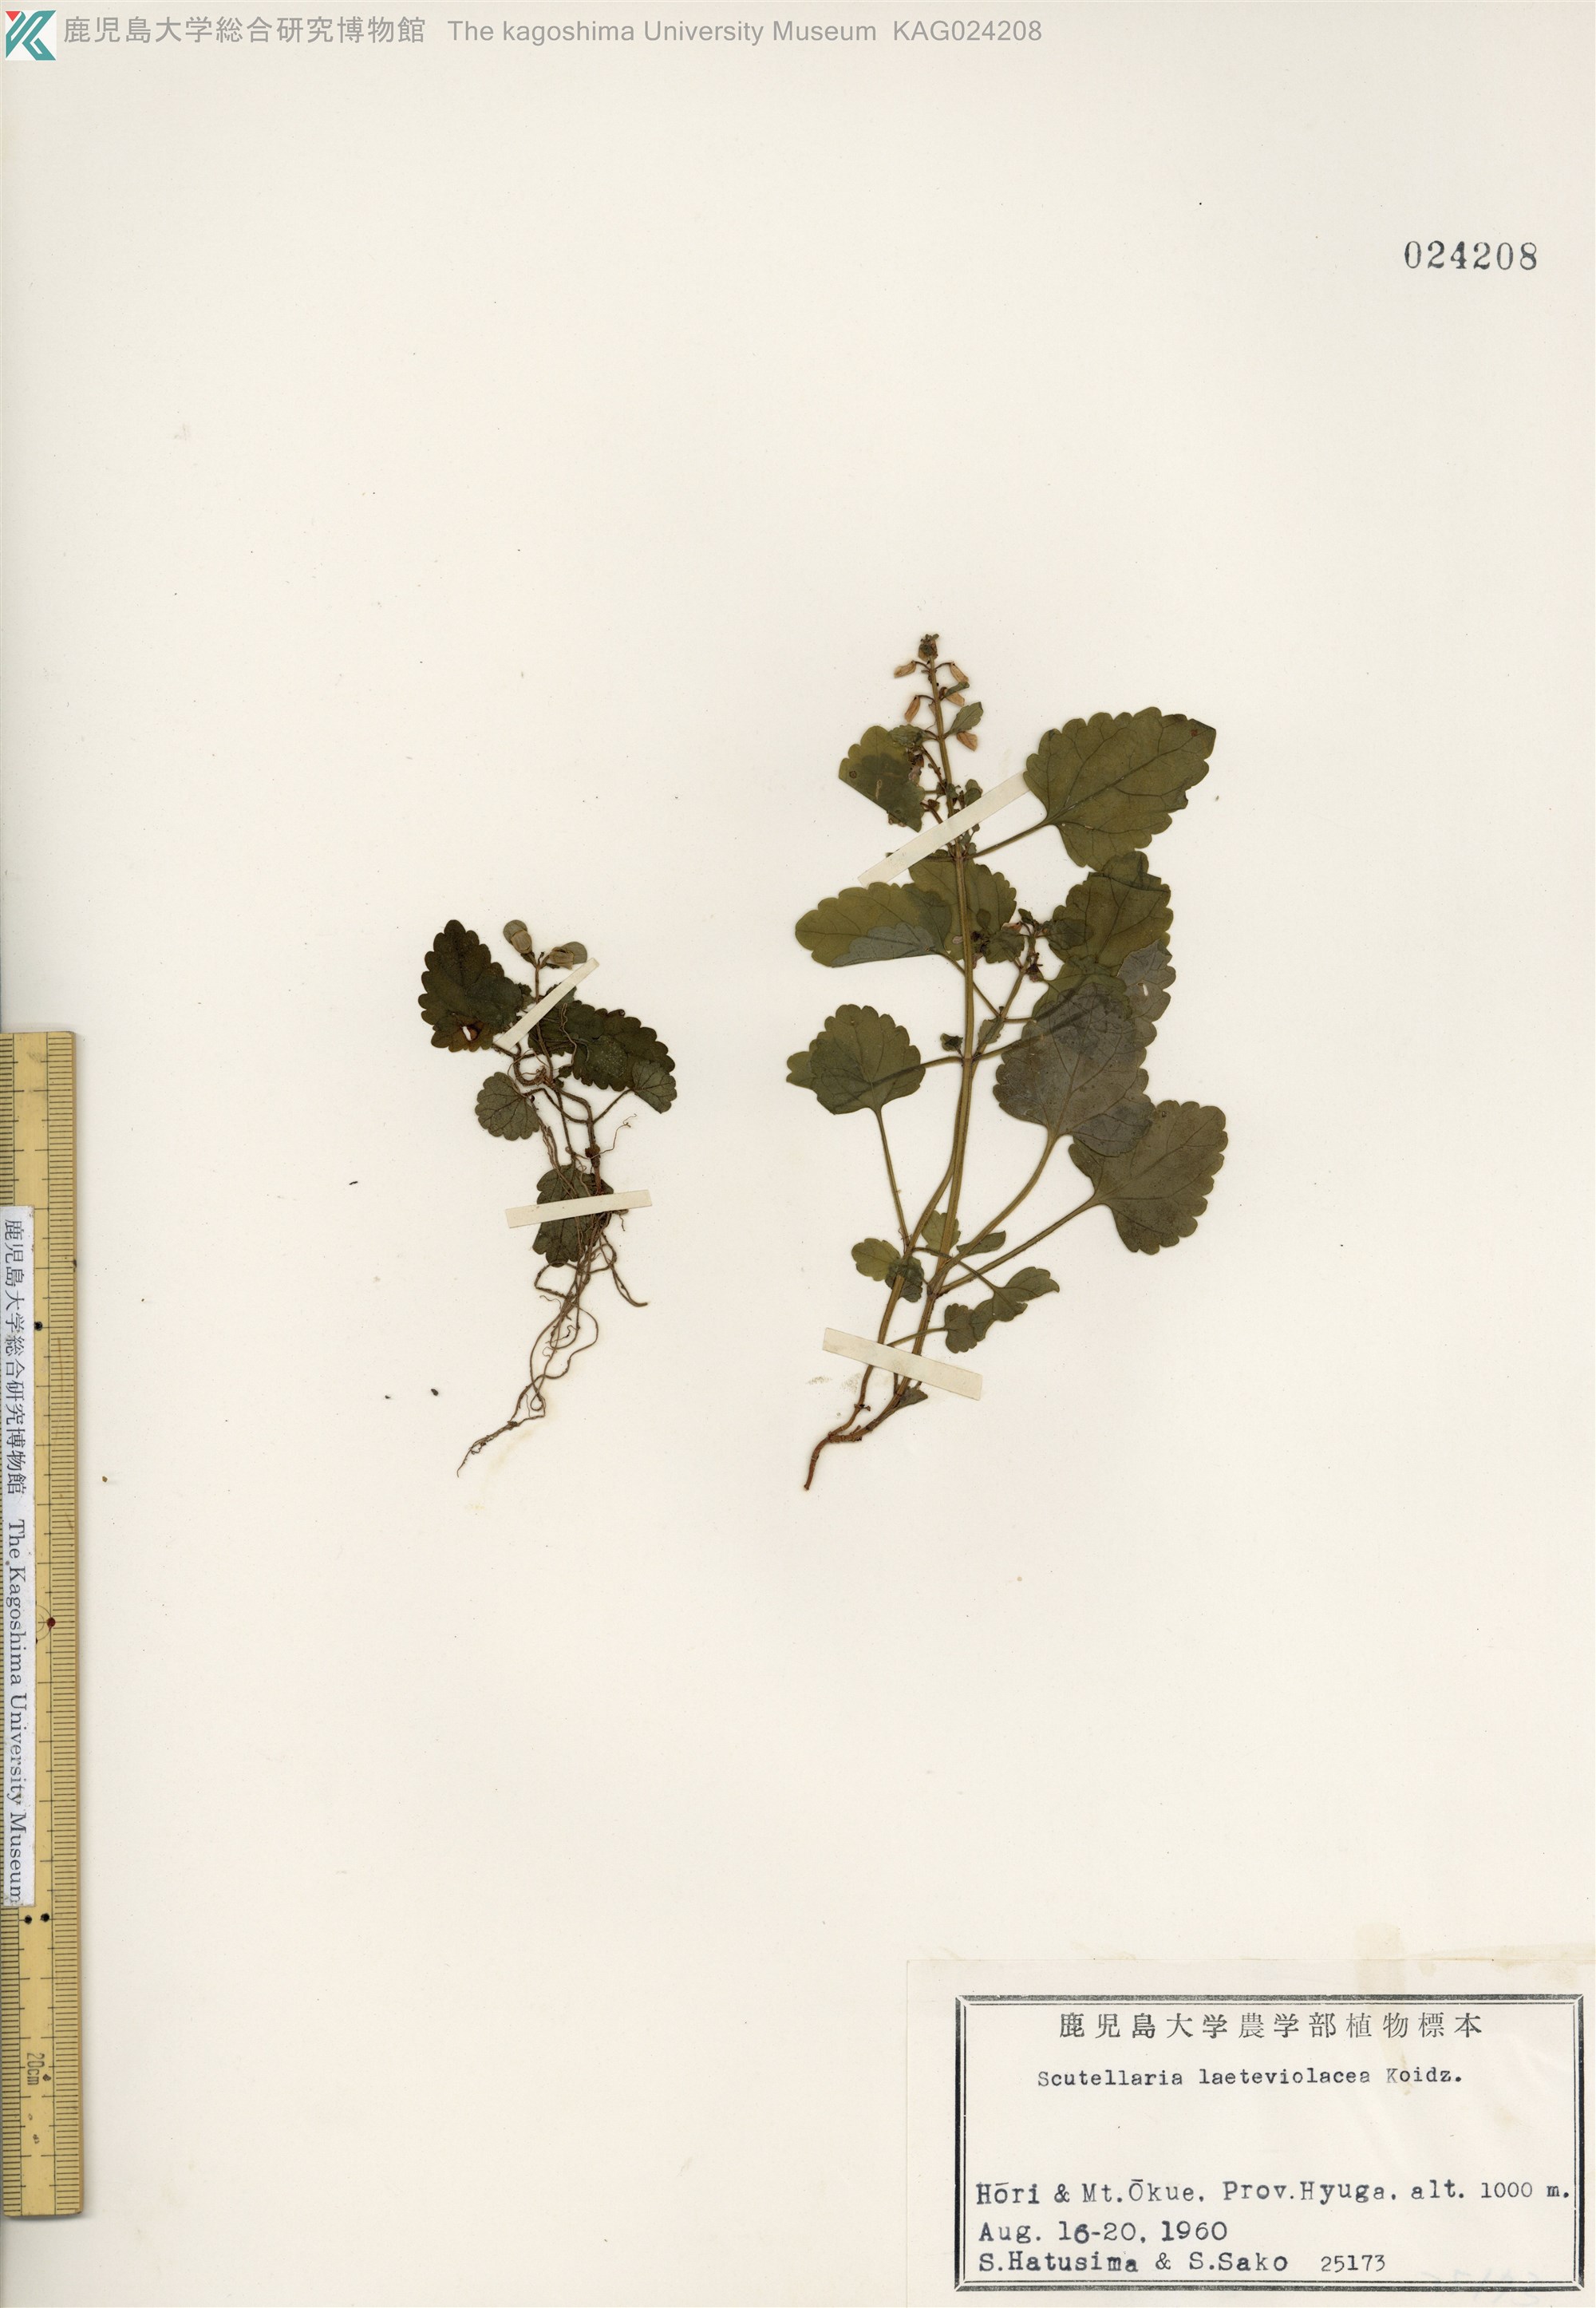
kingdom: Plantae
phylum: Tracheophyta
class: Magnoliopsida
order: Lamiales
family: Lamiaceae
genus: Scutellaria
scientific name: Scutellaria laeteviolacea
